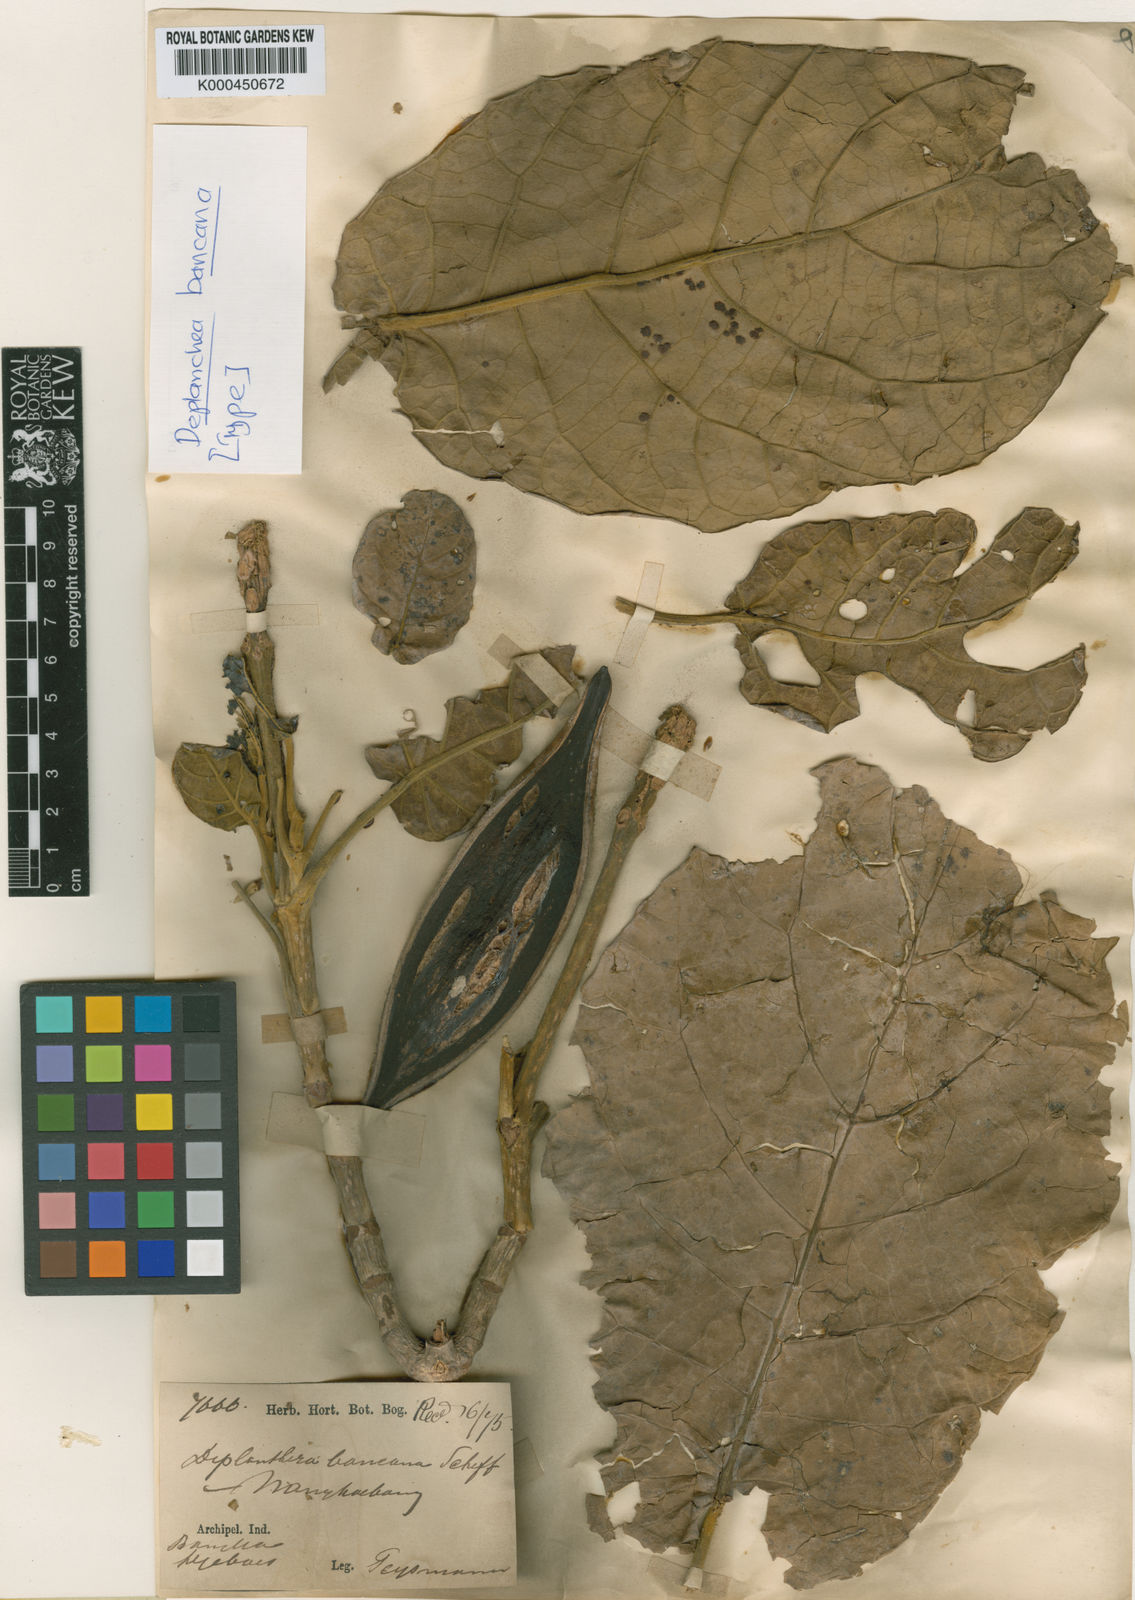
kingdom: Plantae
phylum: Tracheophyta
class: Magnoliopsida
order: Lamiales
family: Bignoniaceae
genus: Deplanchea
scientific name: Deplanchea bancana
